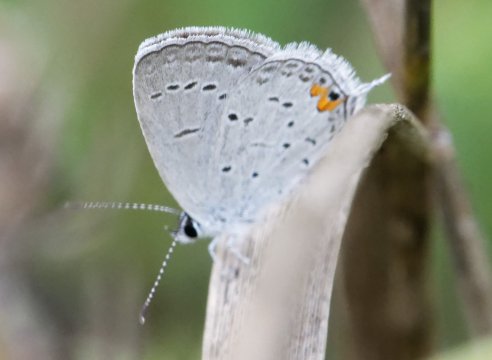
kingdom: Animalia
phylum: Arthropoda
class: Insecta
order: Lepidoptera
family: Lycaenidae
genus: Elkalyce
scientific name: Elkalyce comyntas
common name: Eastern Tailed-Blue
